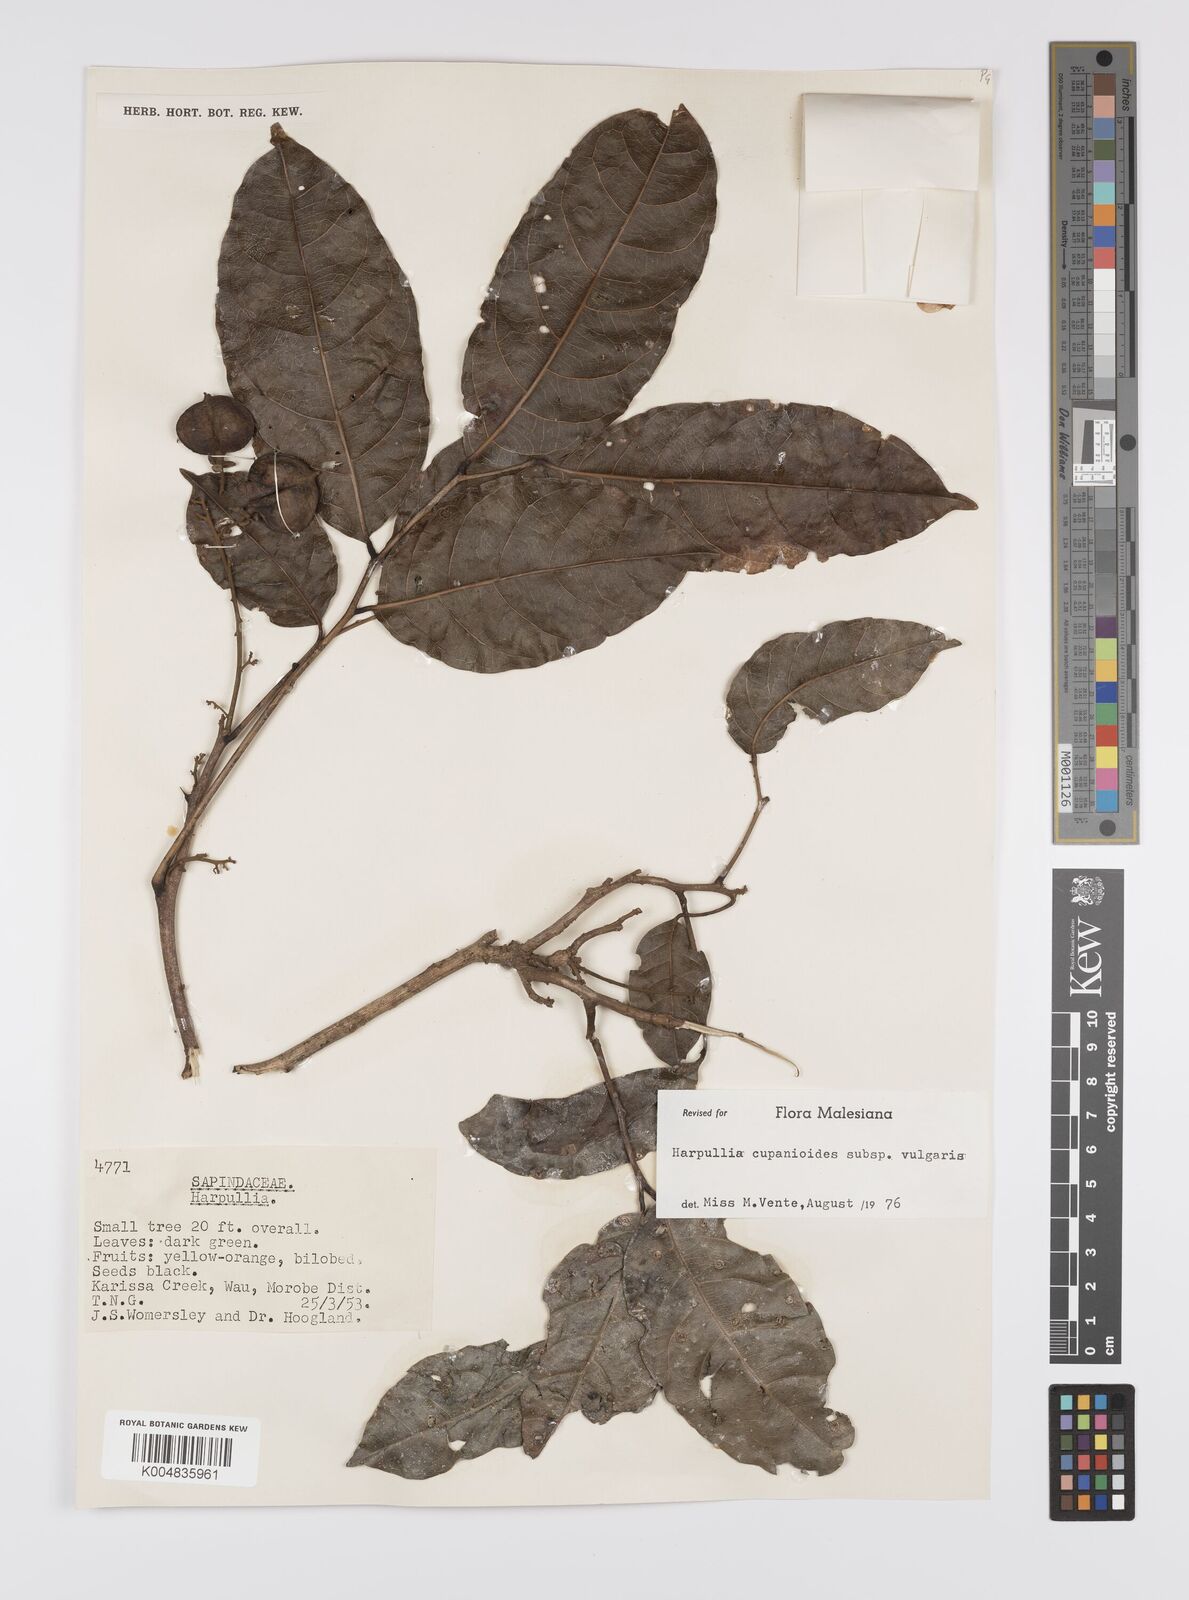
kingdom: Plantae
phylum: Tracheophyta
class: Magnoliopsida
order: Sapindales
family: Sapindaceae
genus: Harpullia
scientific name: Harpullia cupanioides
